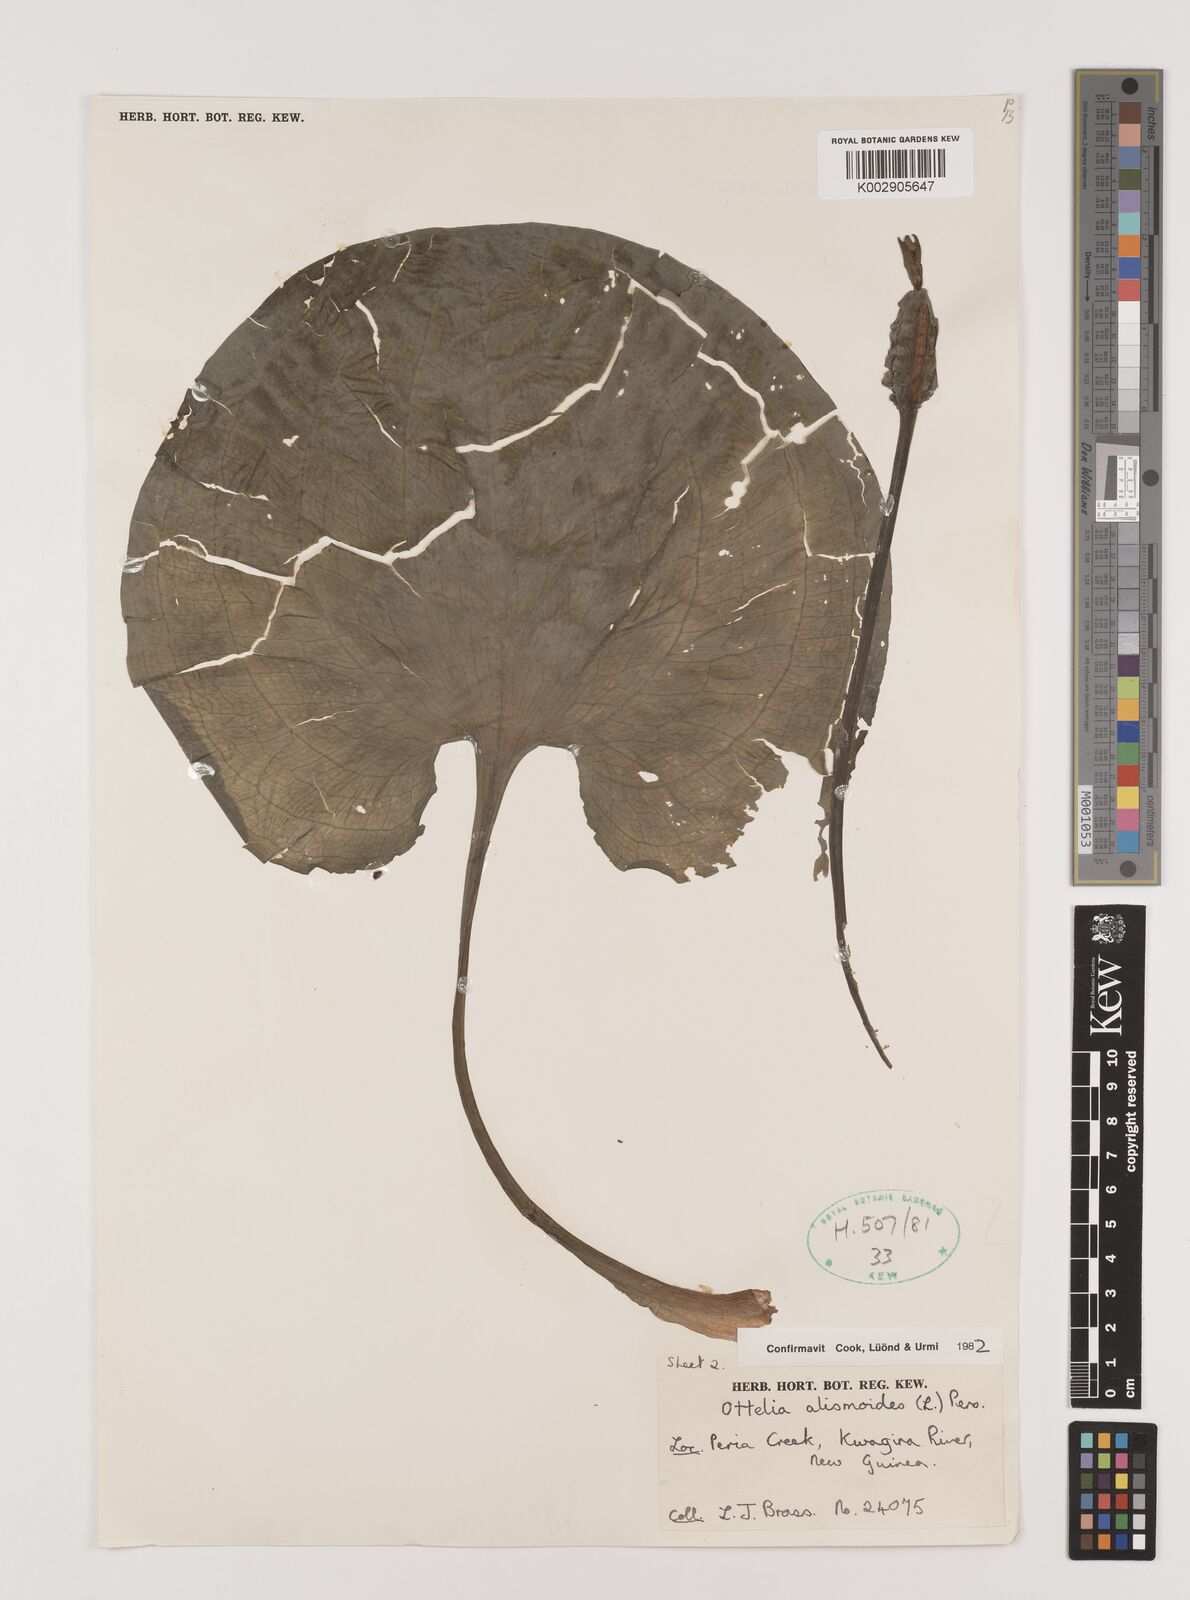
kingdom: Plantae
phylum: Tracheophyta
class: Liliopsida
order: Alismatales
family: Hydrocharitaceae
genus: Ottelia
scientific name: Ottelia alismoides
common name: Duck-lettuce
